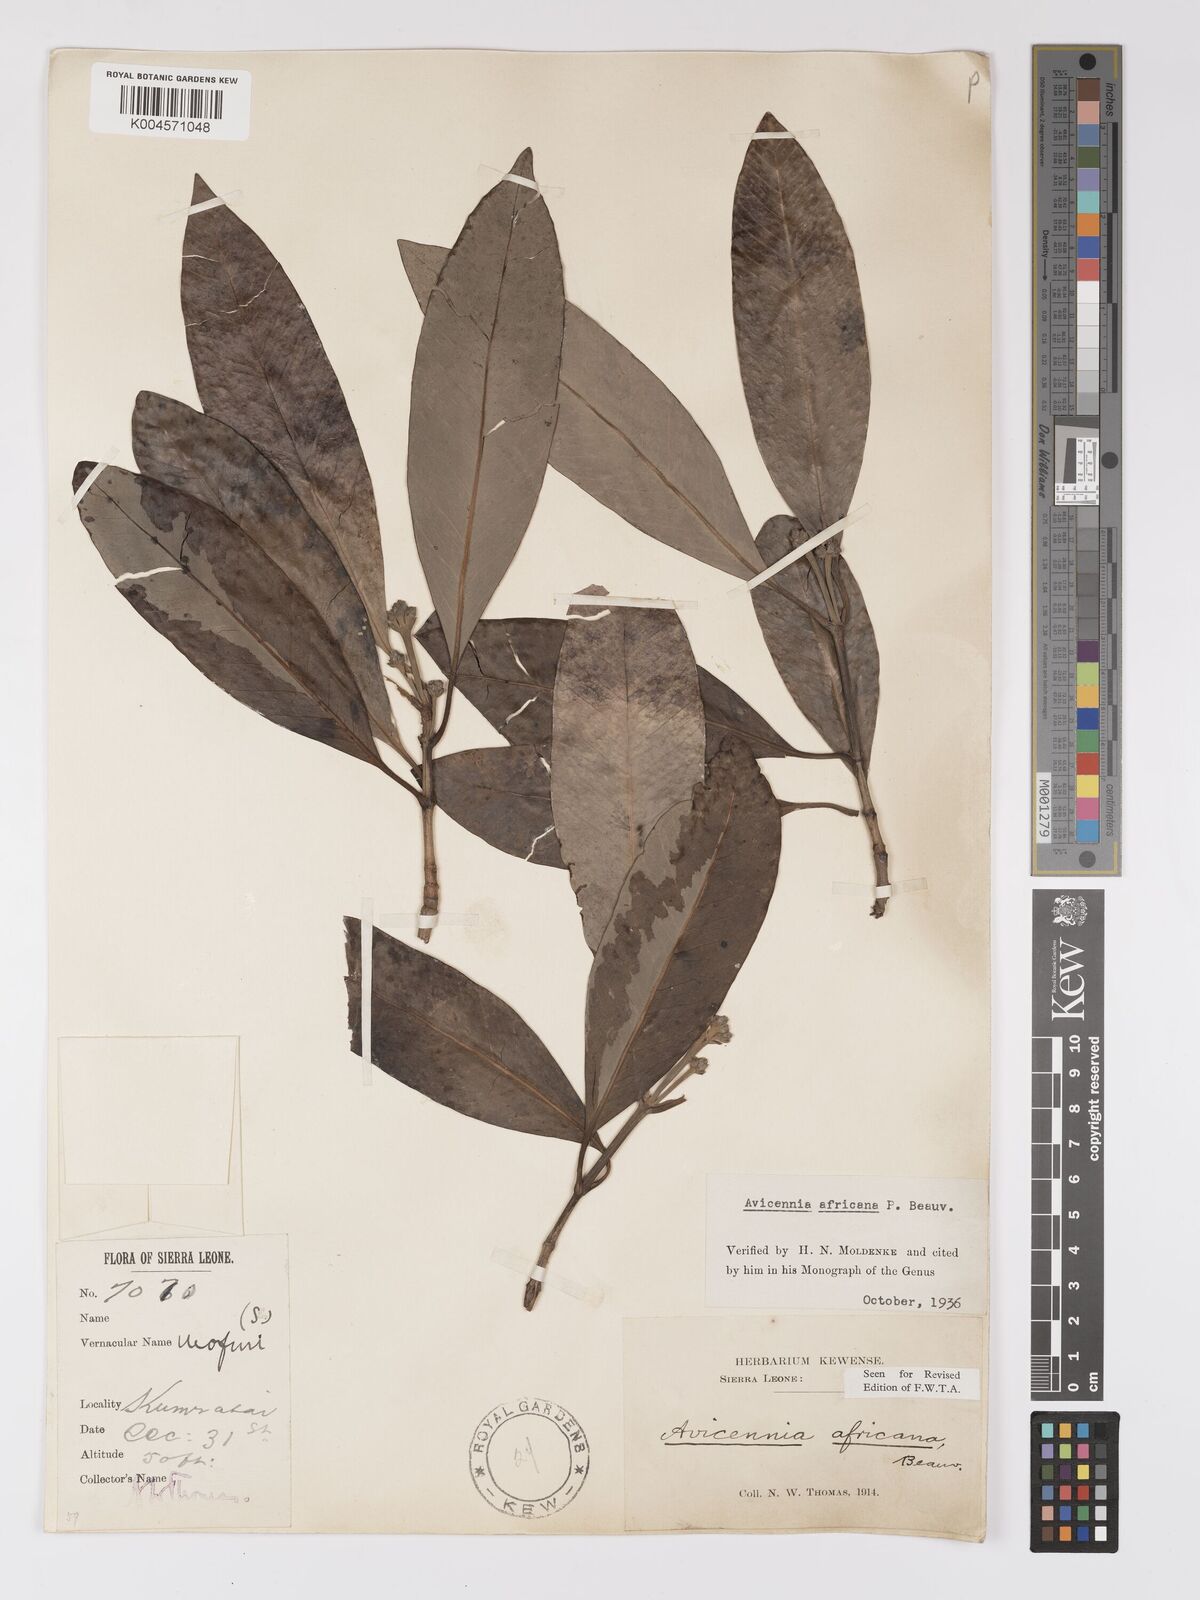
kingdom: Plantae
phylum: Tracheophyta
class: Magnoliopsida
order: Lamiales
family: Acanthaceae
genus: Avicennia
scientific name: Avicennia germinans
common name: Black mangrove
